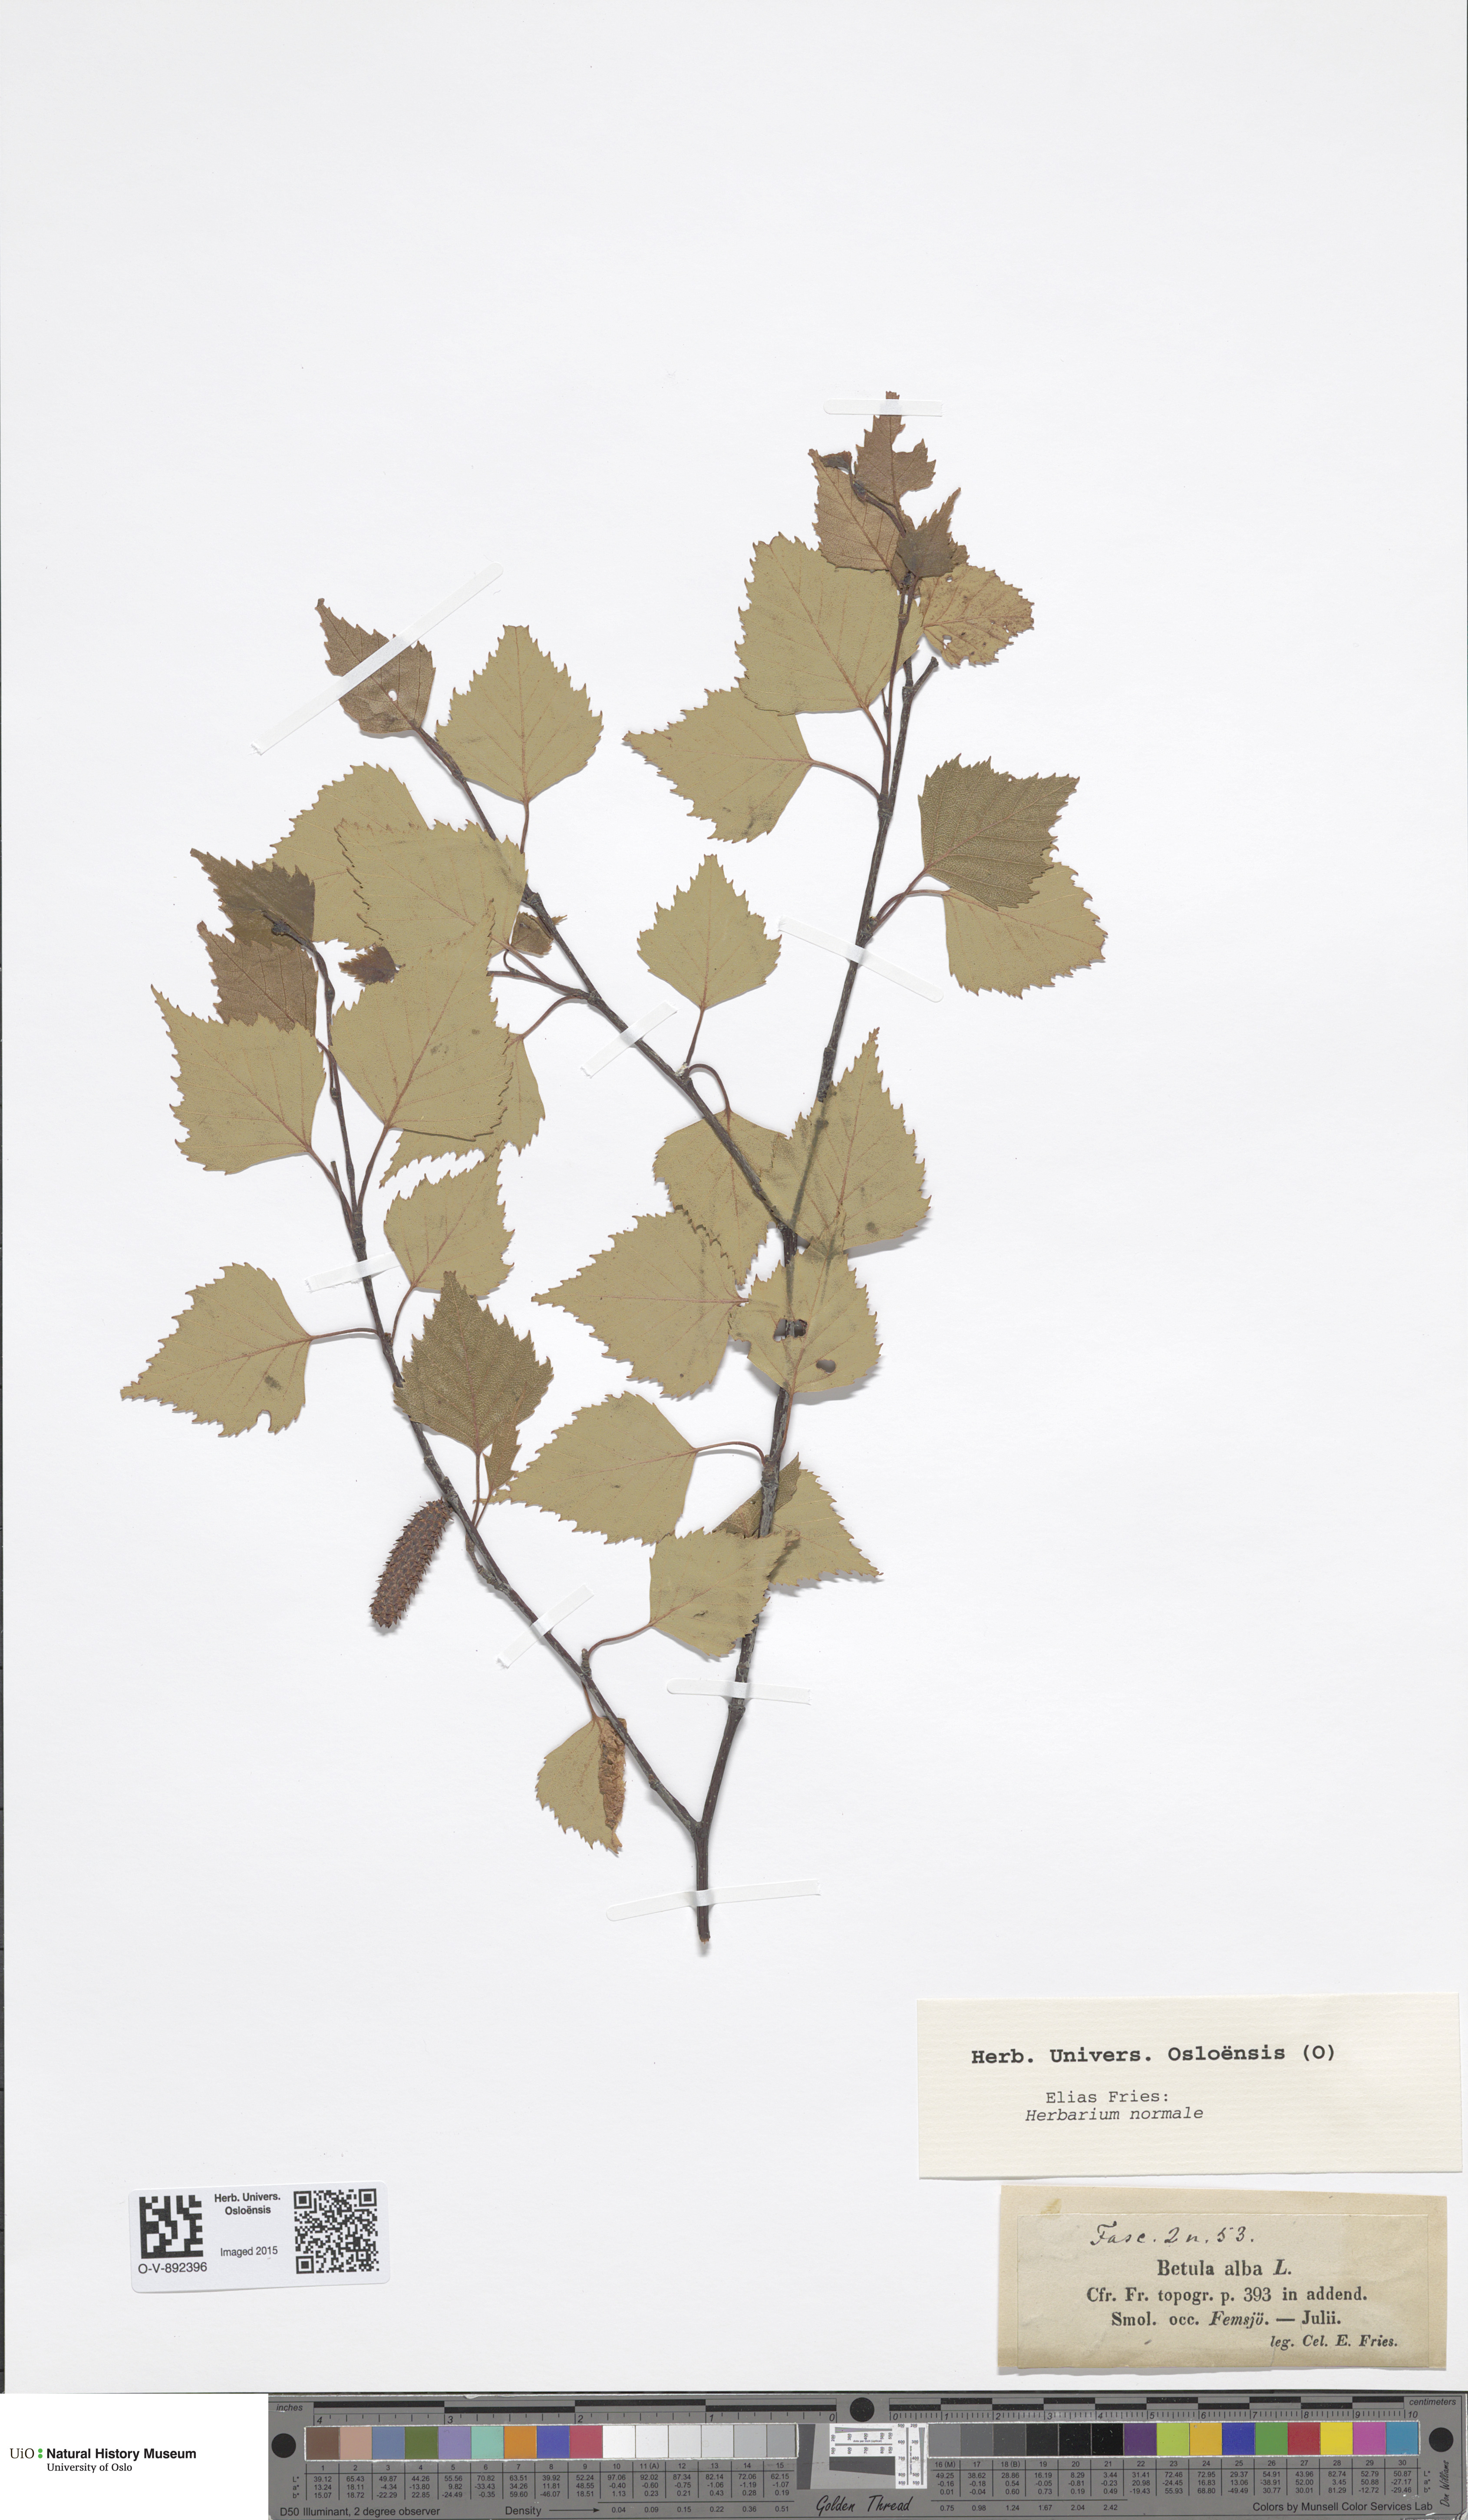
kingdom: Plantae
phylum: Tracheophyta
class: Magnoliopsida
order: Fagales
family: Betulaceae
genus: Betula
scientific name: Betula pubescens
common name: Downy birch
